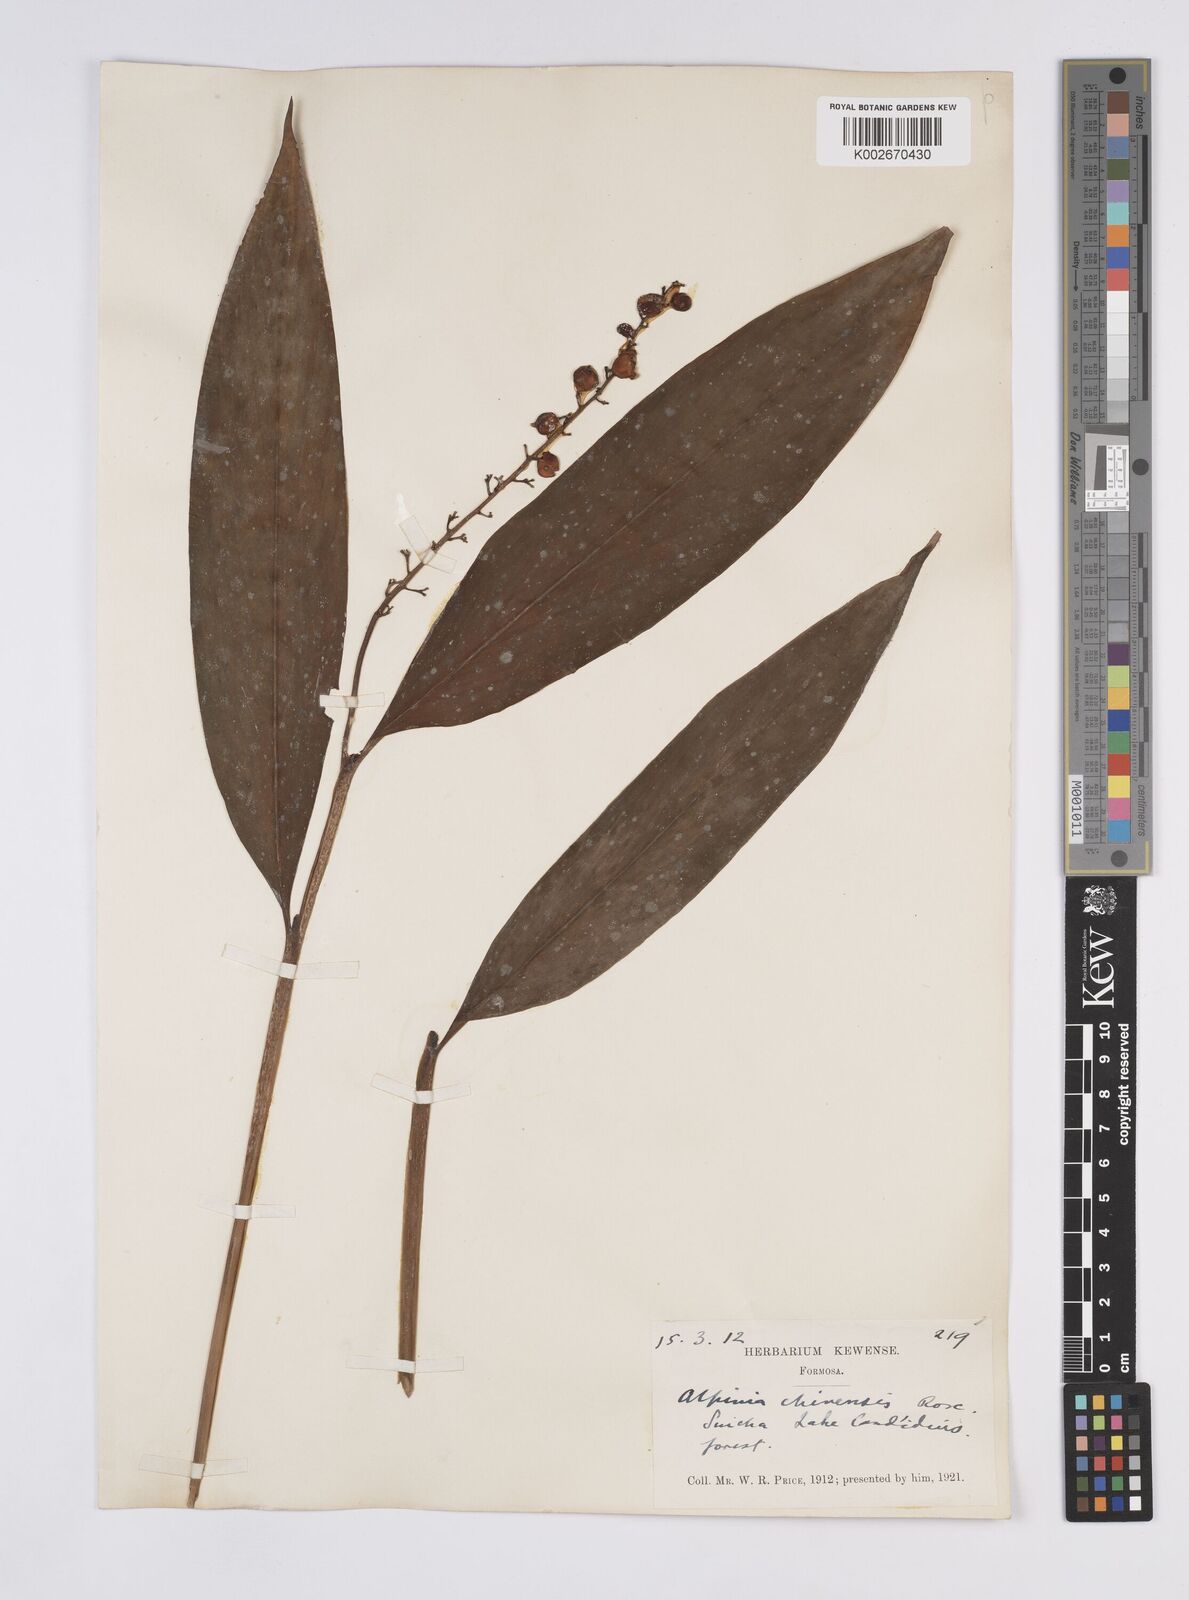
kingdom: Plantae
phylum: Tracheophyta
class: Liliopsida
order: Zingiberales
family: Zingiberaceae
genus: Alpinia
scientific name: Alpinia chinensis
